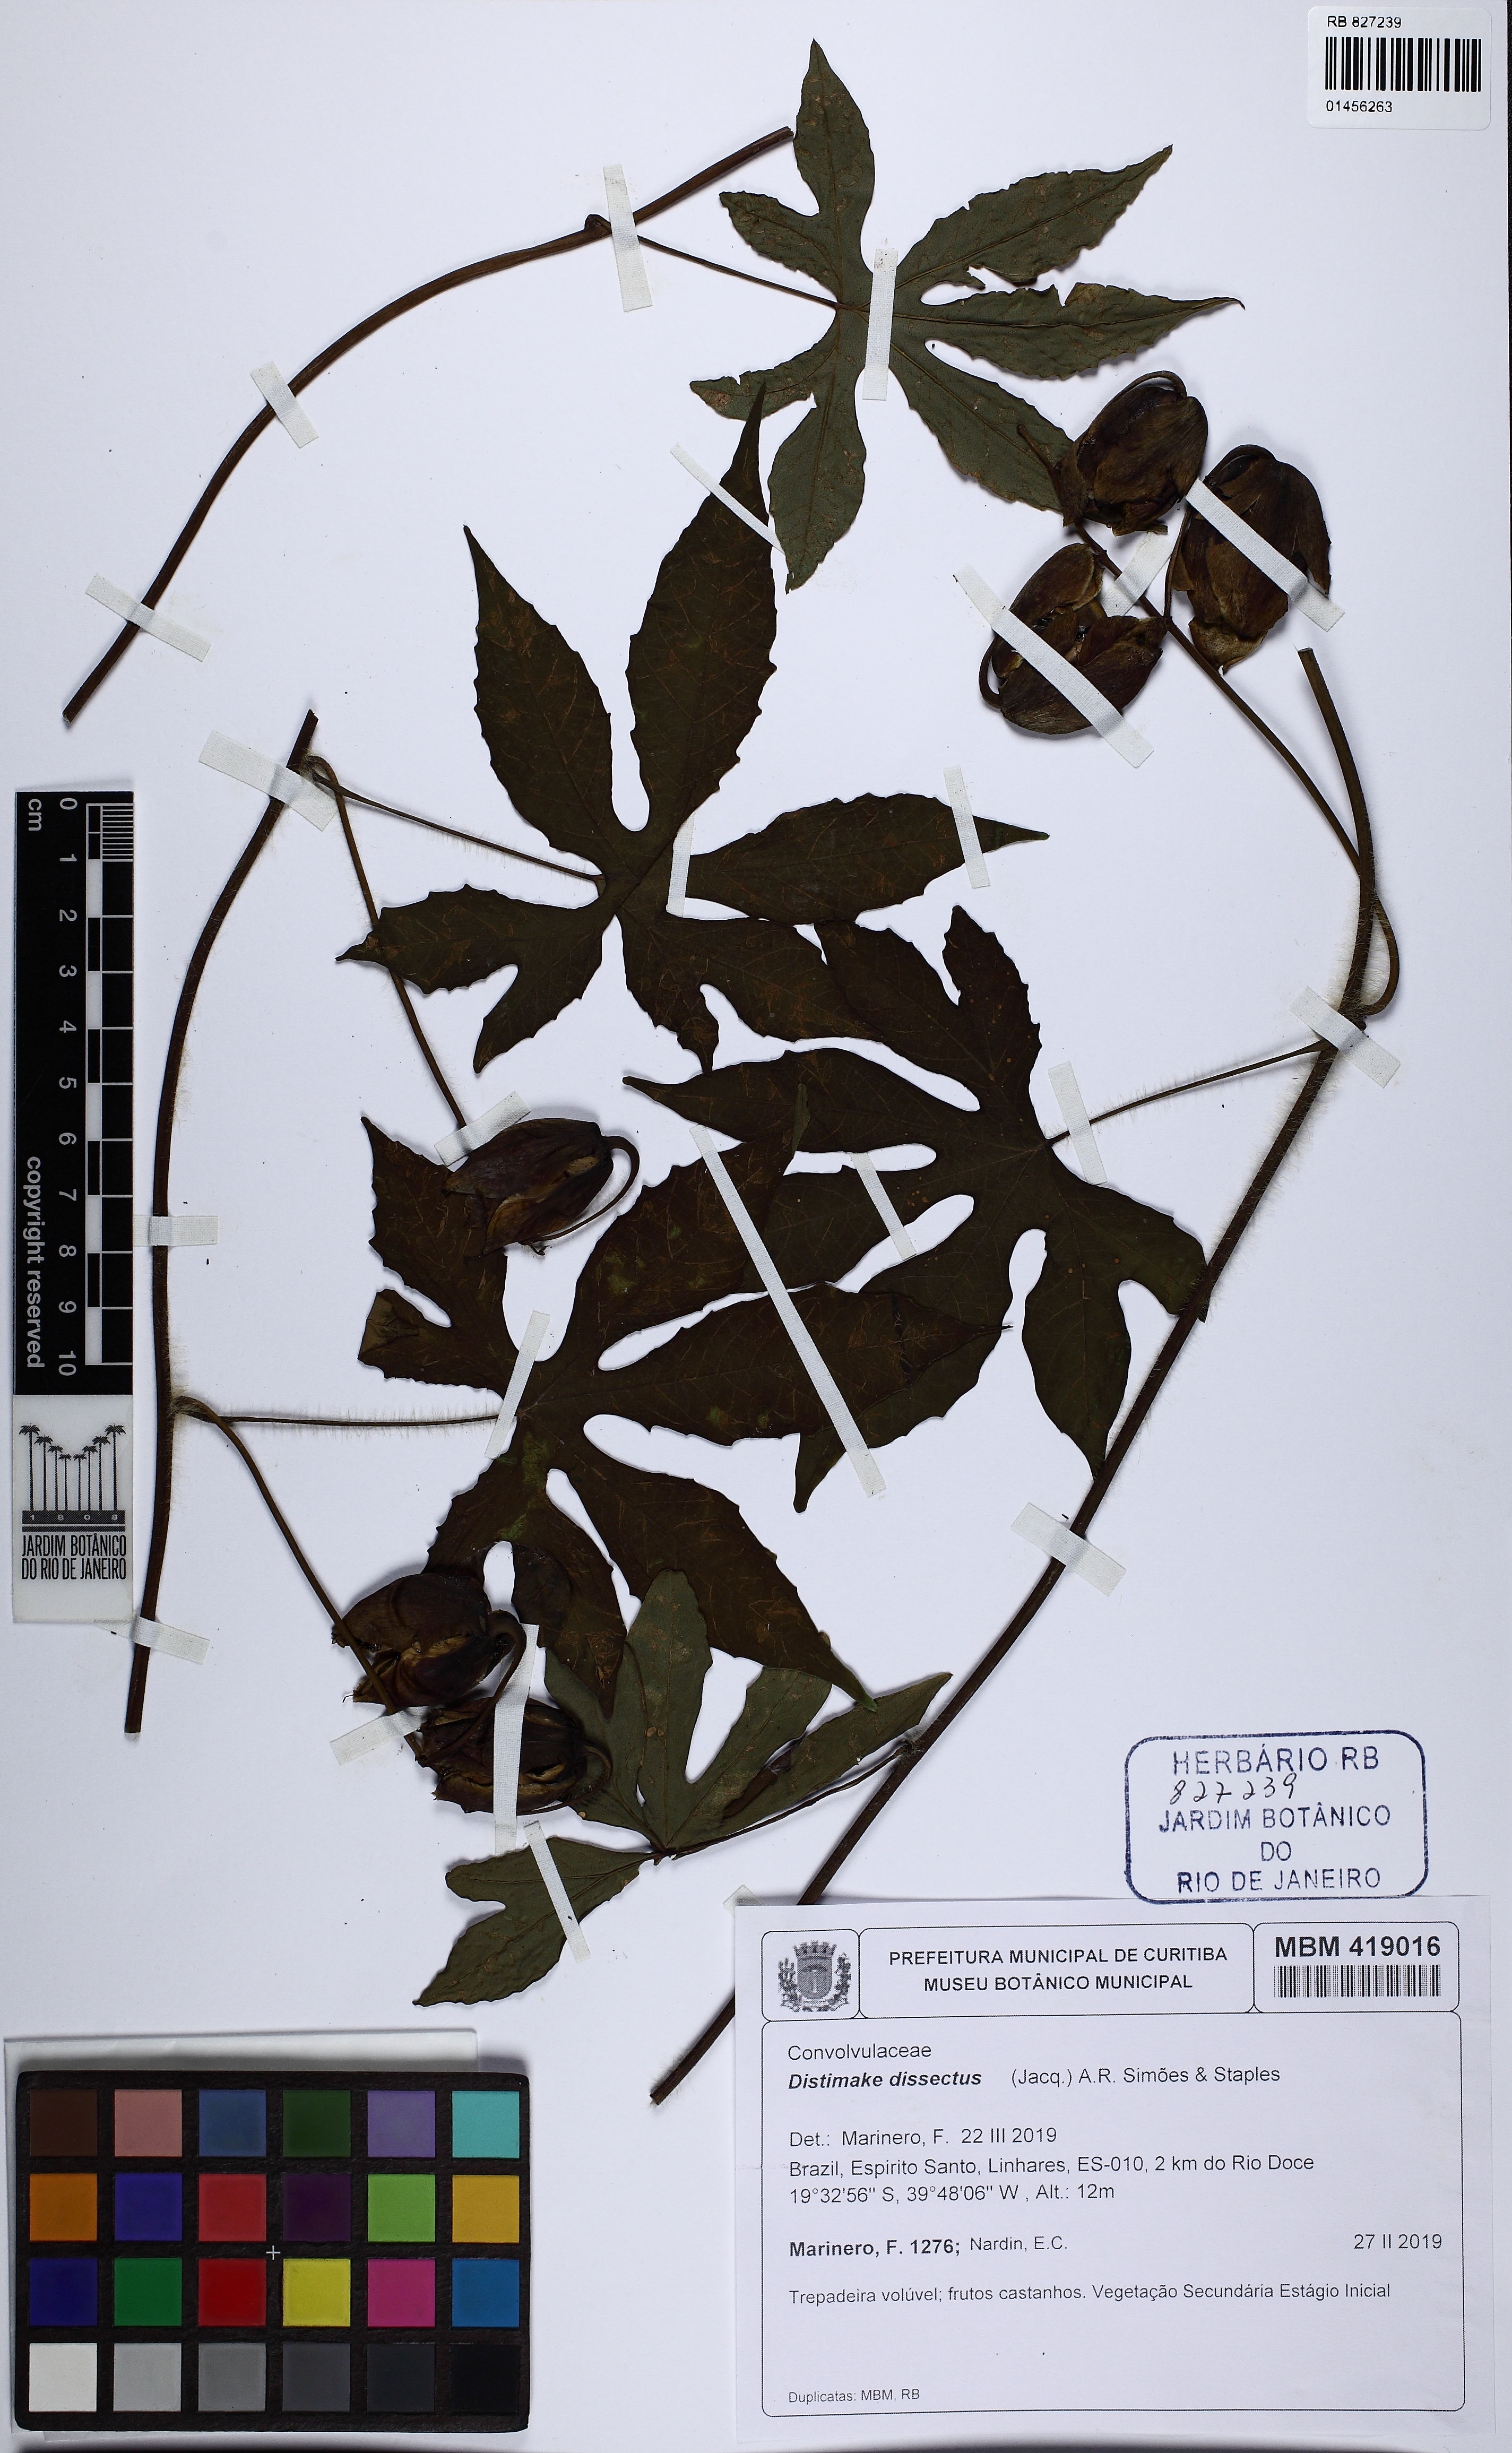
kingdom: Plantae
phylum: Tracheophyta
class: Magnoliopsida
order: Solanales
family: Convolvulaceae
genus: Distimake
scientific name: Distimake dissectus
